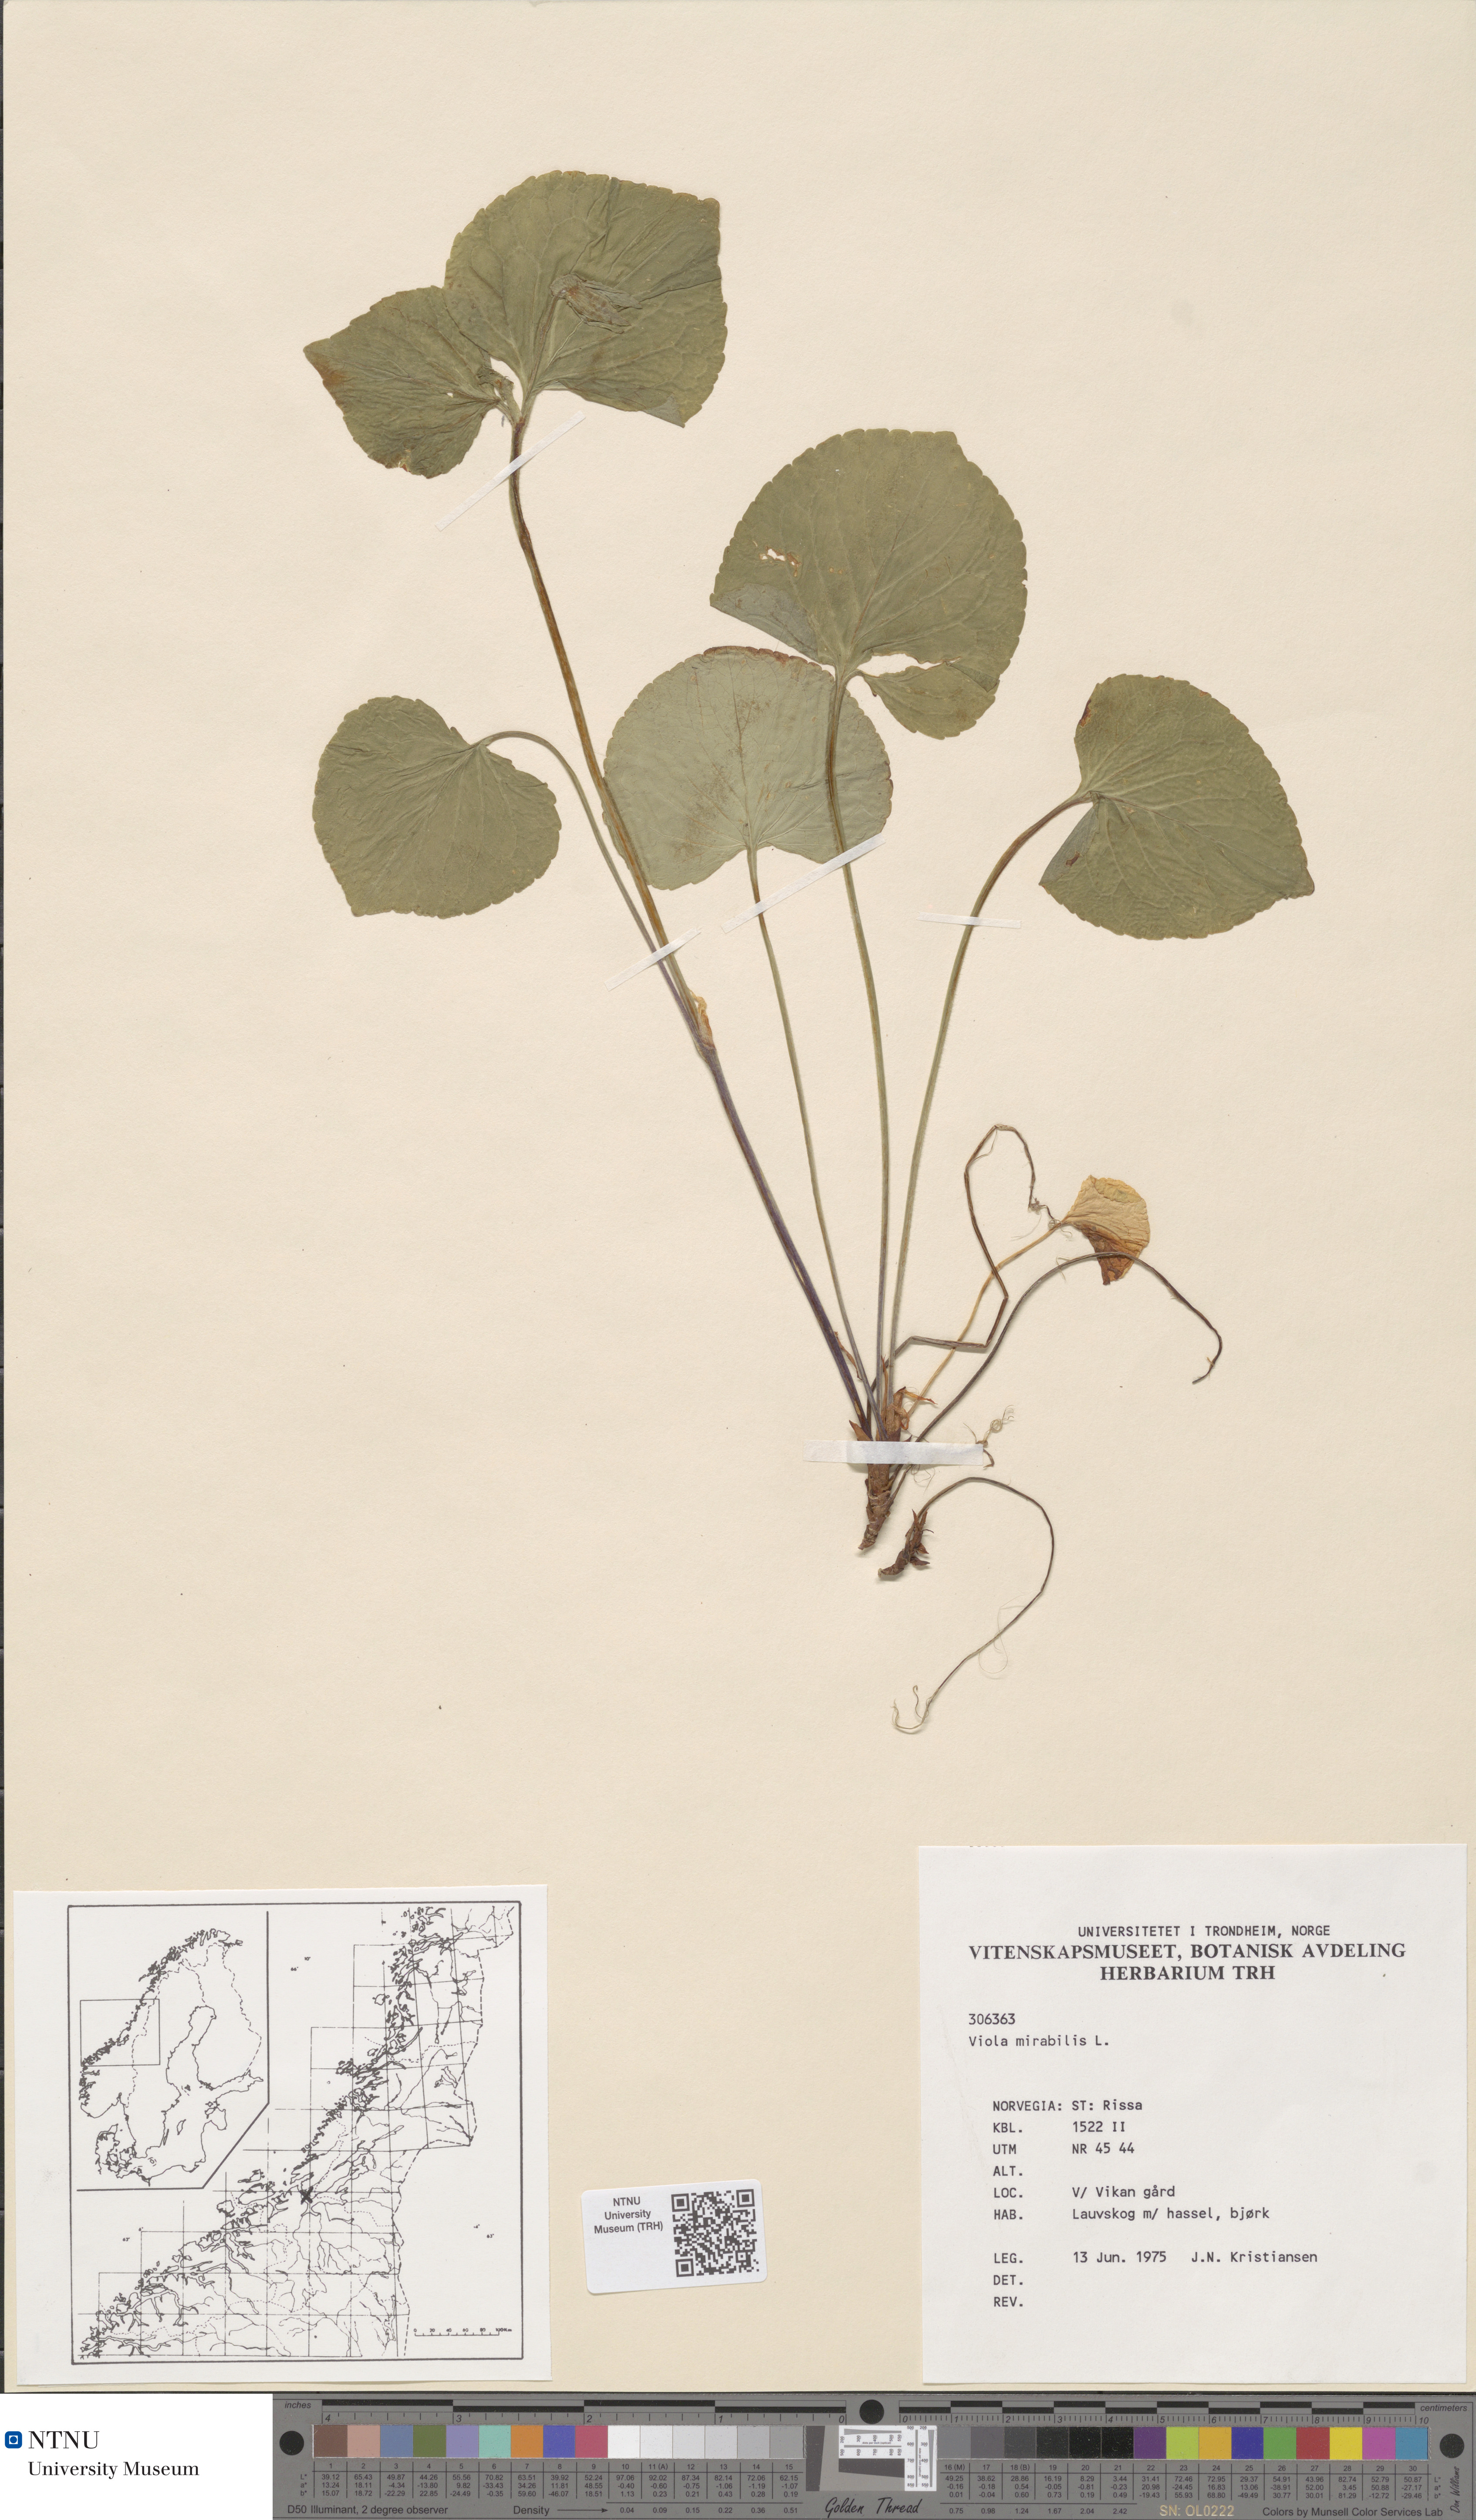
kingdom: Plantae
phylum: Tracheophyta
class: Magnoliopsida
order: Malpighiales
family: Violaceae
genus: Viola
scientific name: Viola mirabilis
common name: Wonder violet
